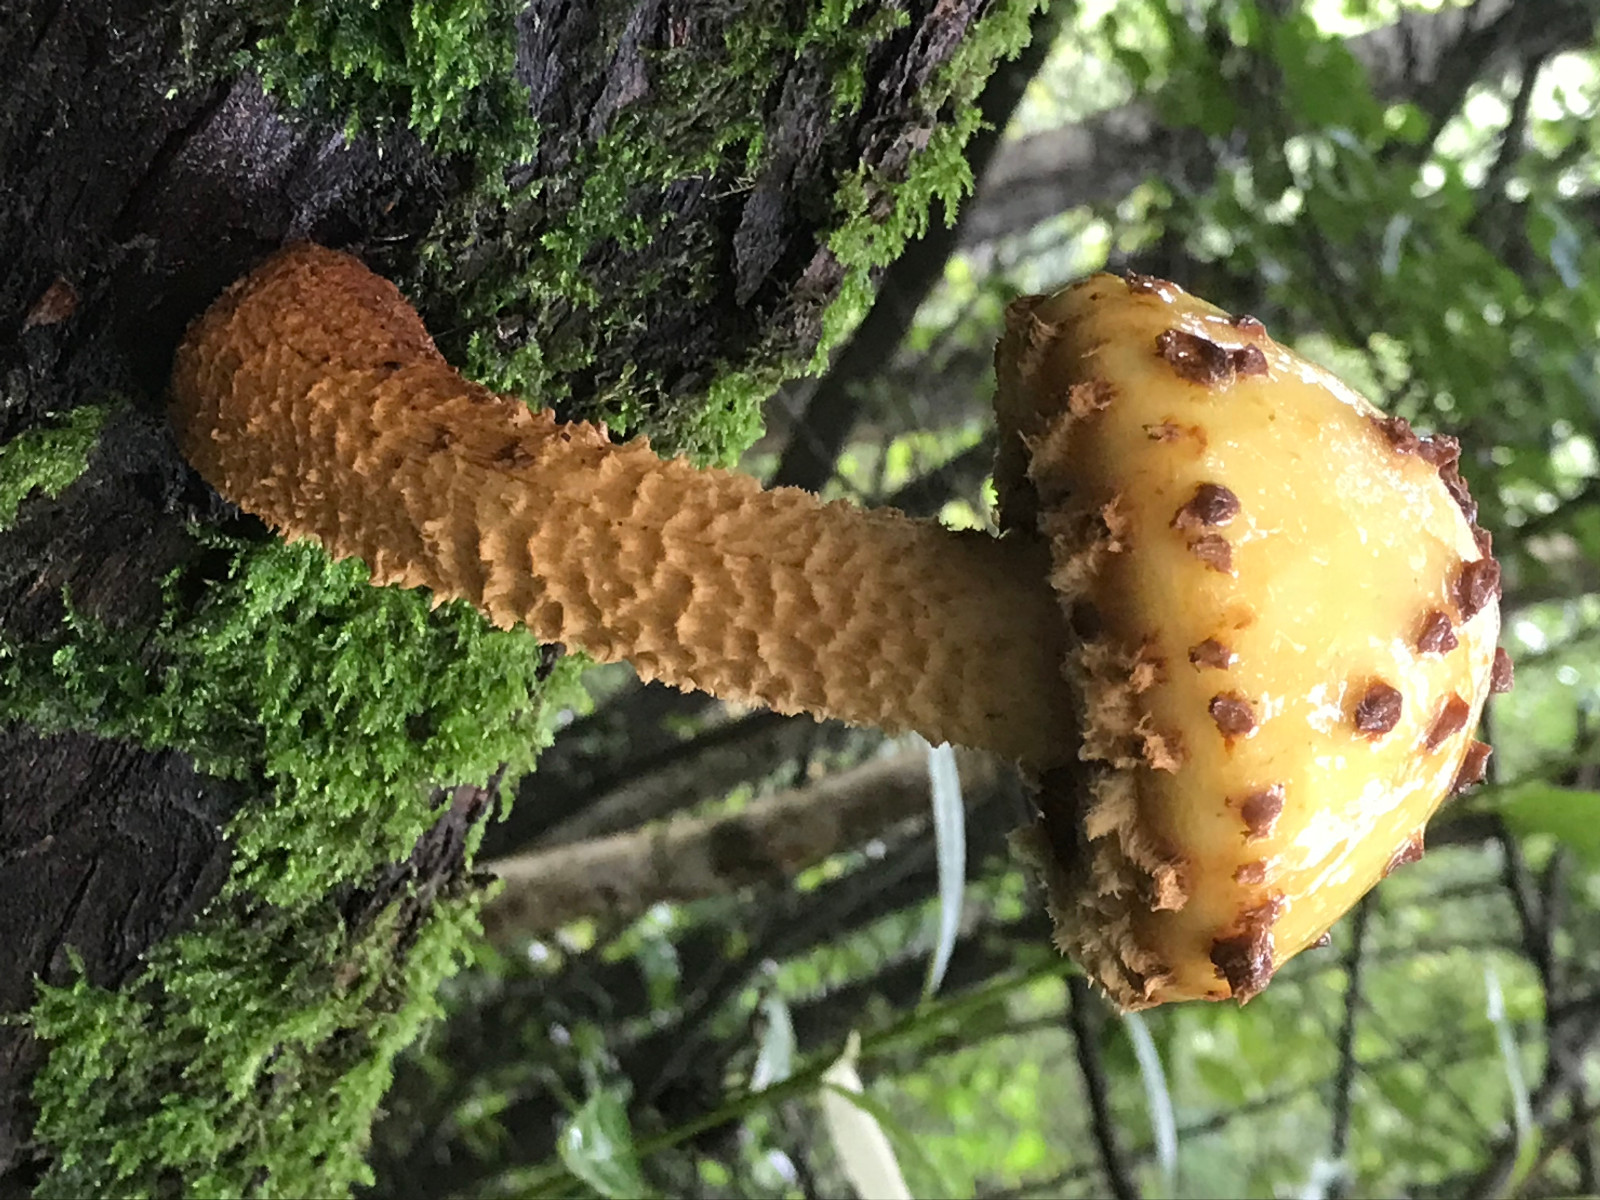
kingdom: Fungi
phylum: Basidiomycota
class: Agaricomycetes
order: Agaricales
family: Strophariaceae
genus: Pholiota
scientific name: Pholiota aurivella
